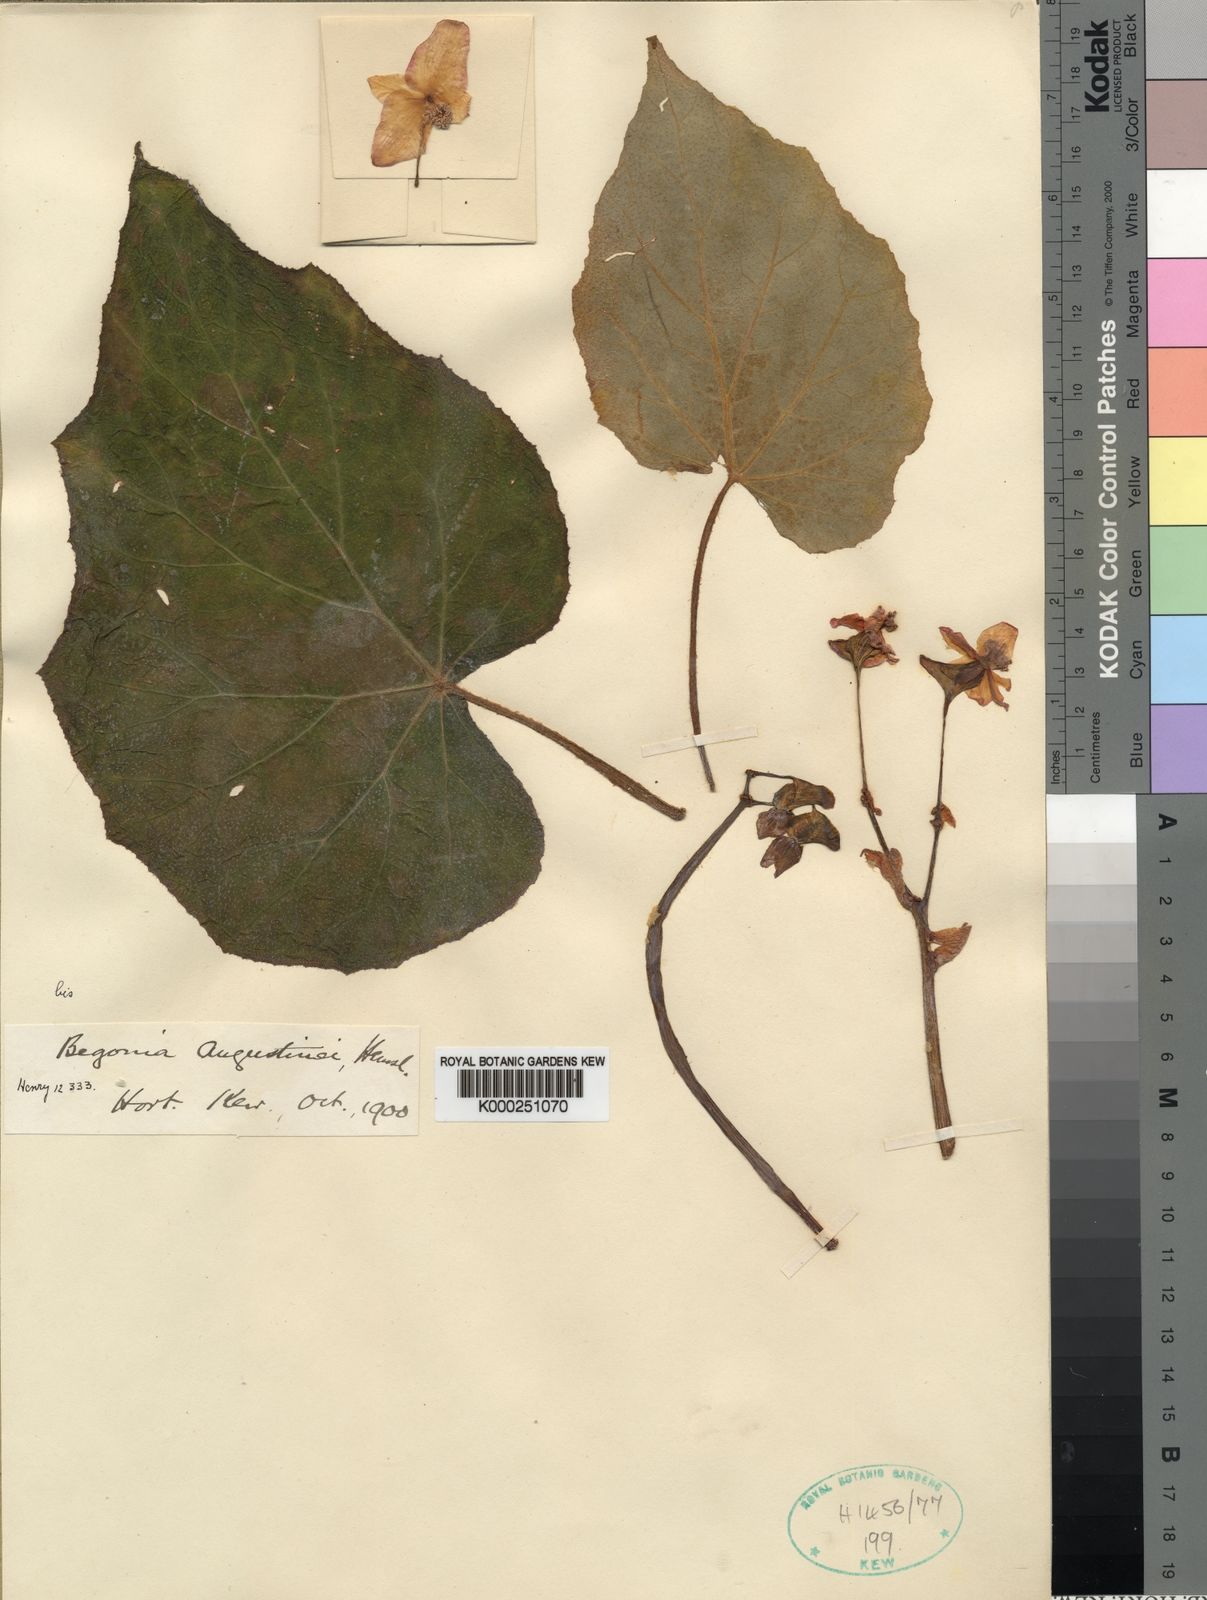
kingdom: Plantae
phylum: Tracheophyta
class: Magnoliopsida
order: Cucurbitales
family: Begoniaceae
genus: Begonia
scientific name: Begonia augustinei
